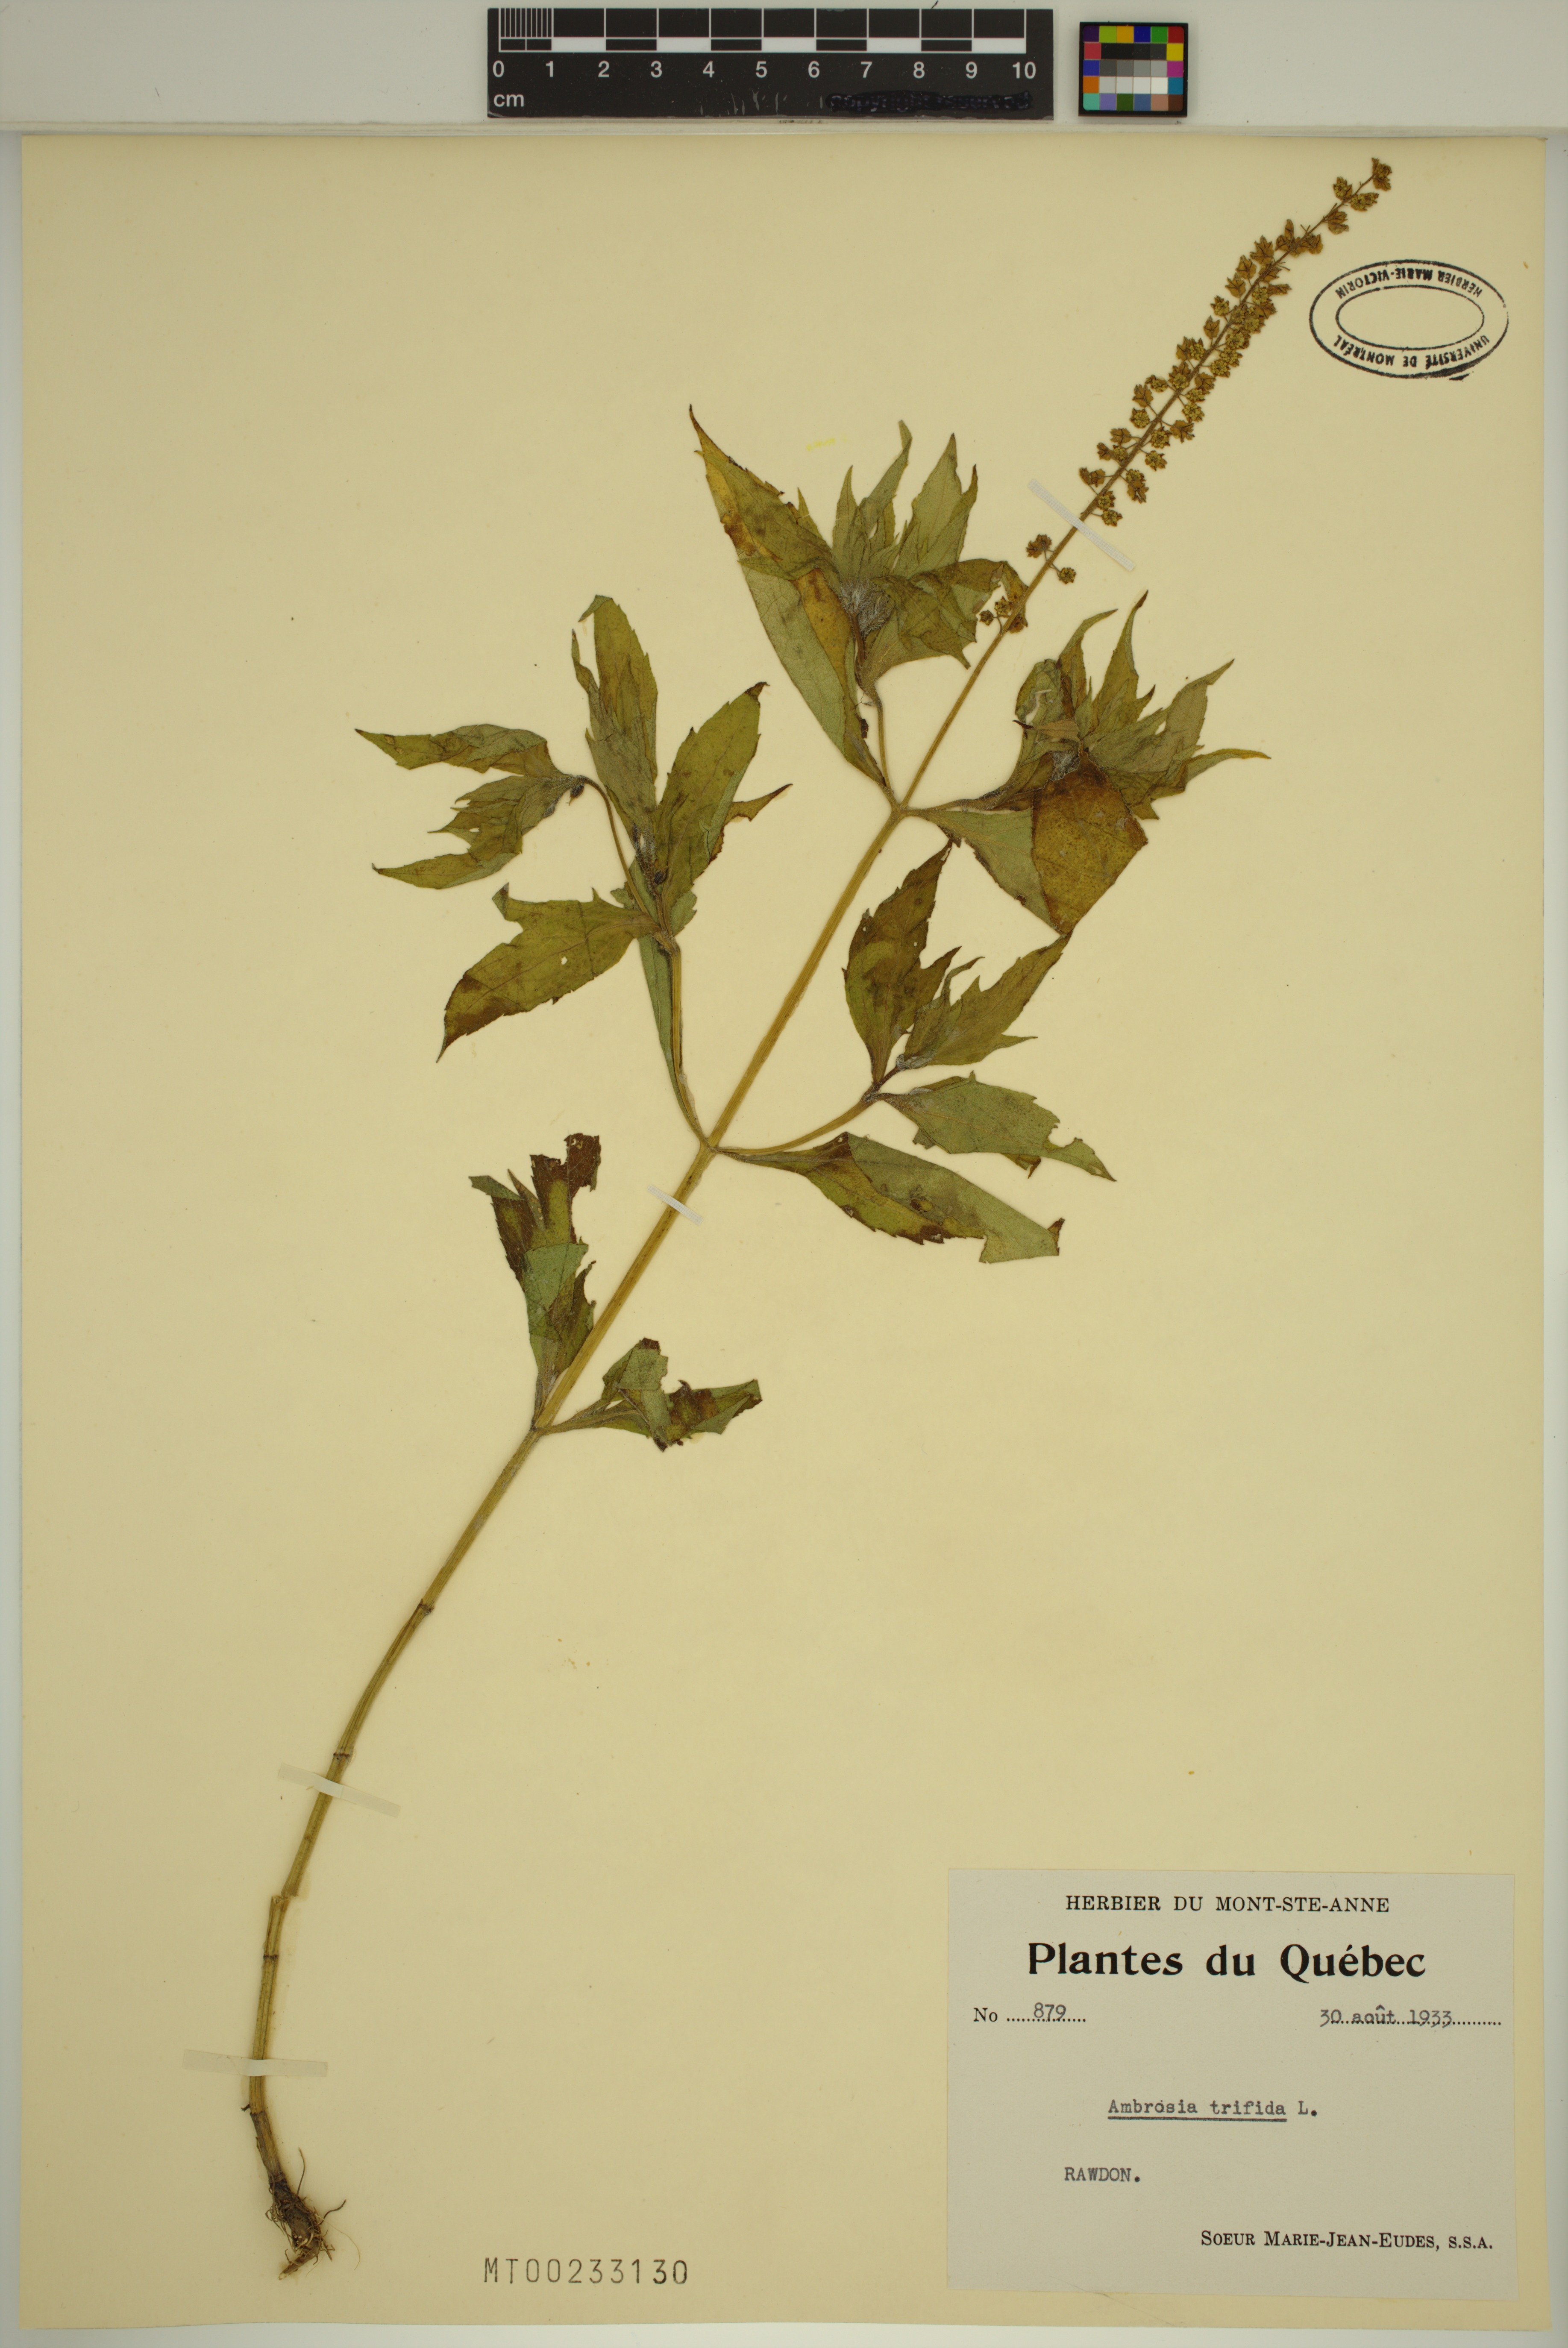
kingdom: Plantae
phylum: Tracheophyta
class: Magnoliopsida
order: Asterales
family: Asteraceae
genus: Ambrosia
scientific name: Ambrosia trifida
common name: Giant ragweed
